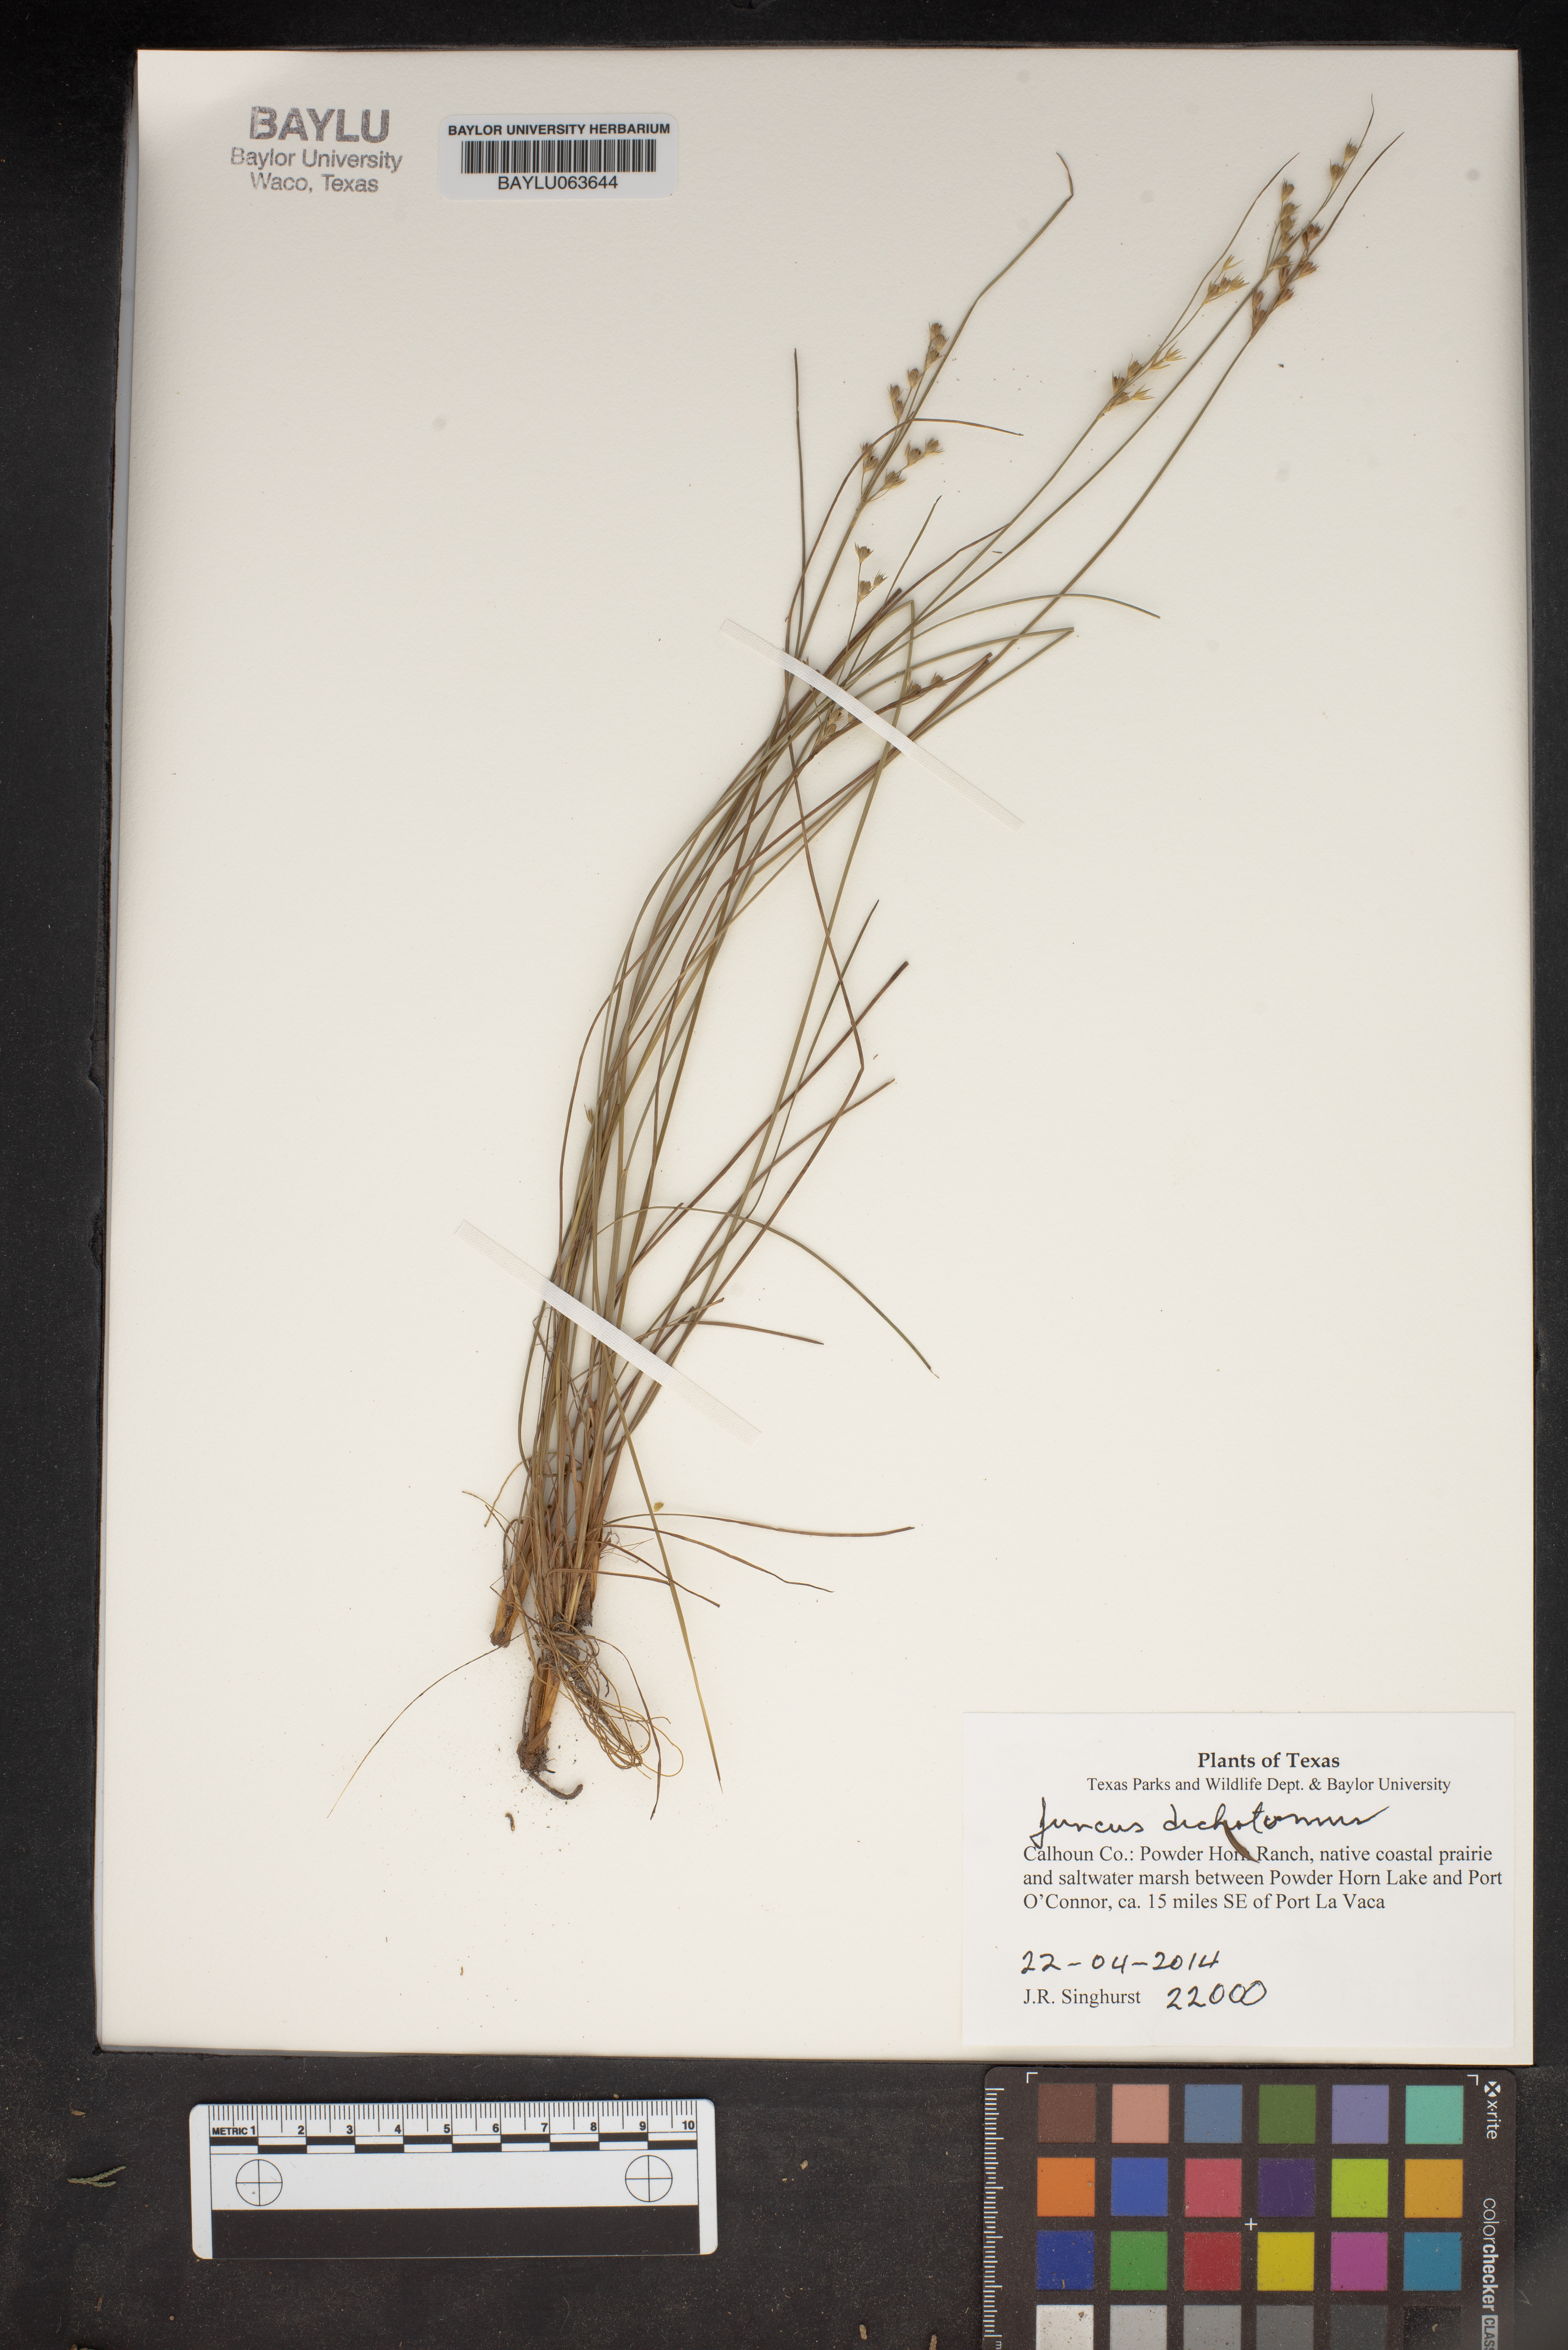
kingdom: Plantae
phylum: Tracheophyta
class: Liliopsida
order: Poales
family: Juncaceae
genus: Juncus
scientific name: Juncus dichotomus
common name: Forked rush
